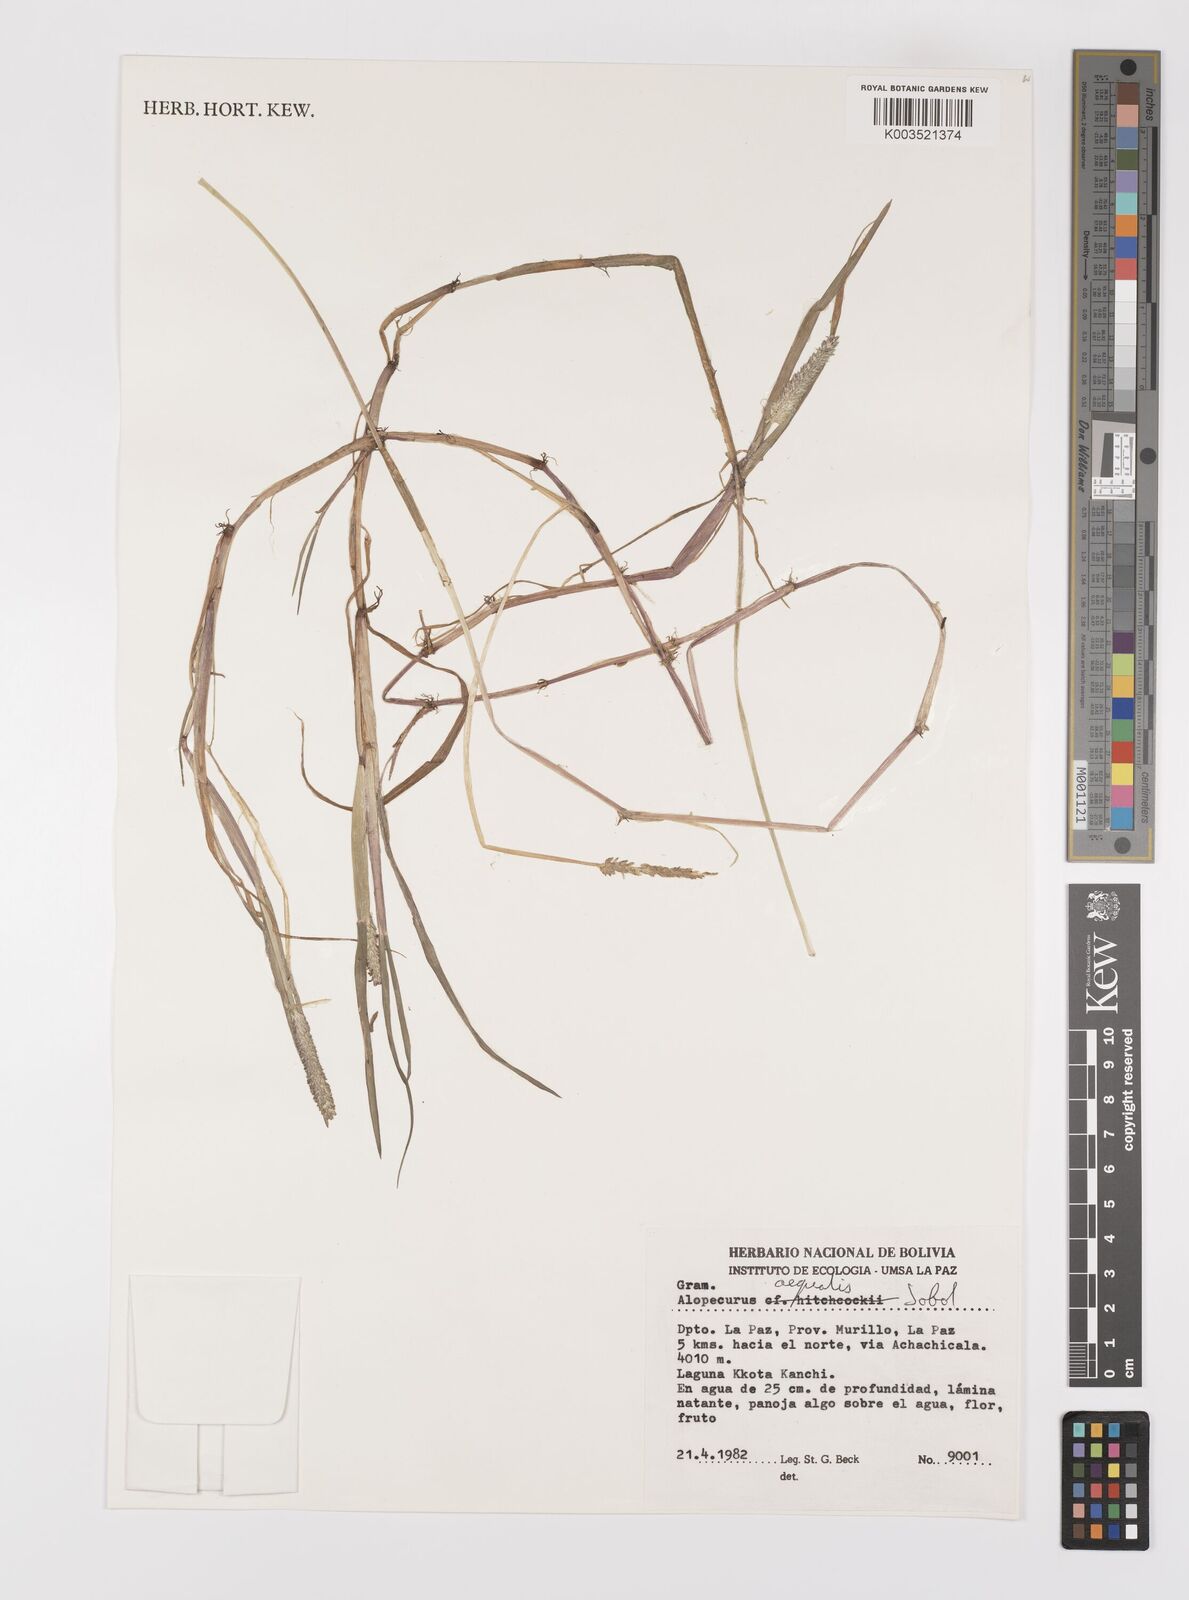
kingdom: Plantae
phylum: Tracheophyta
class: Liliopsida
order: Poales
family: Poaceae
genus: Alopecurus
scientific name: Alopecurus hitchcockii
